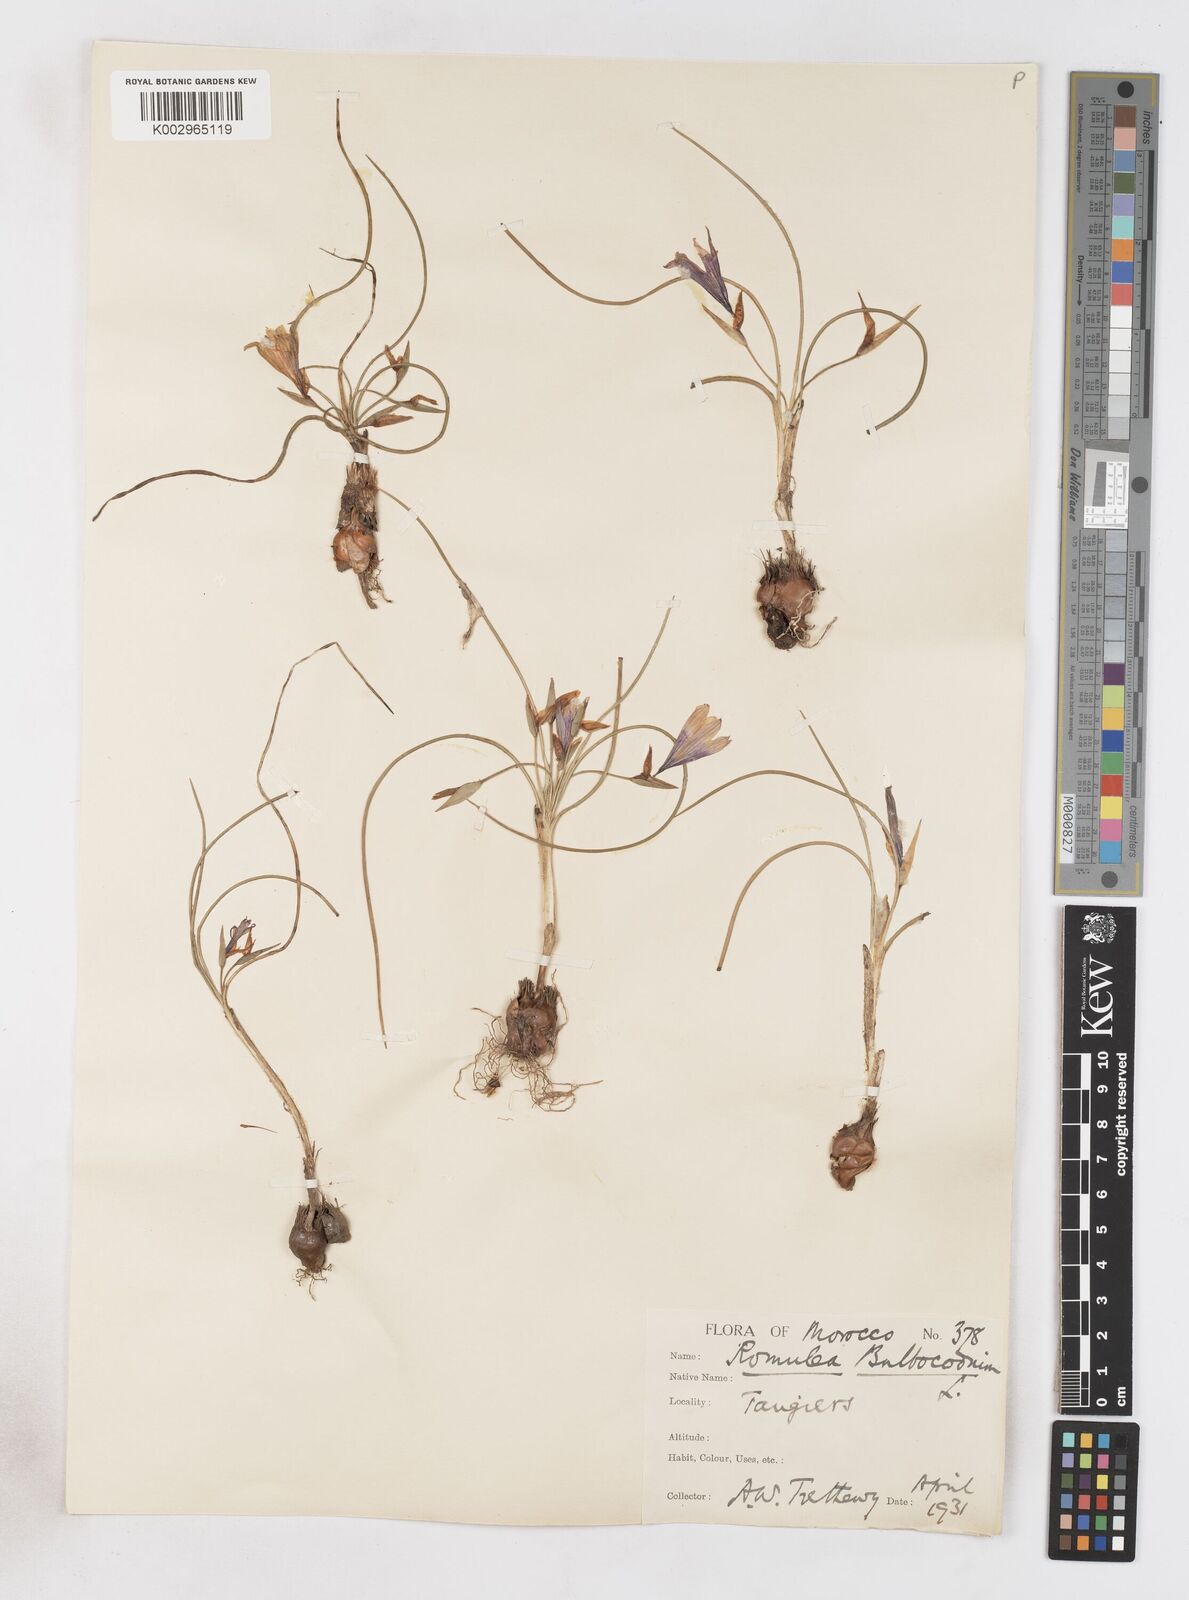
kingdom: Plantae
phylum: Tracheophyta
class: Liliopsida
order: Asparagales
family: Iridaceae
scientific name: Iridaceae
